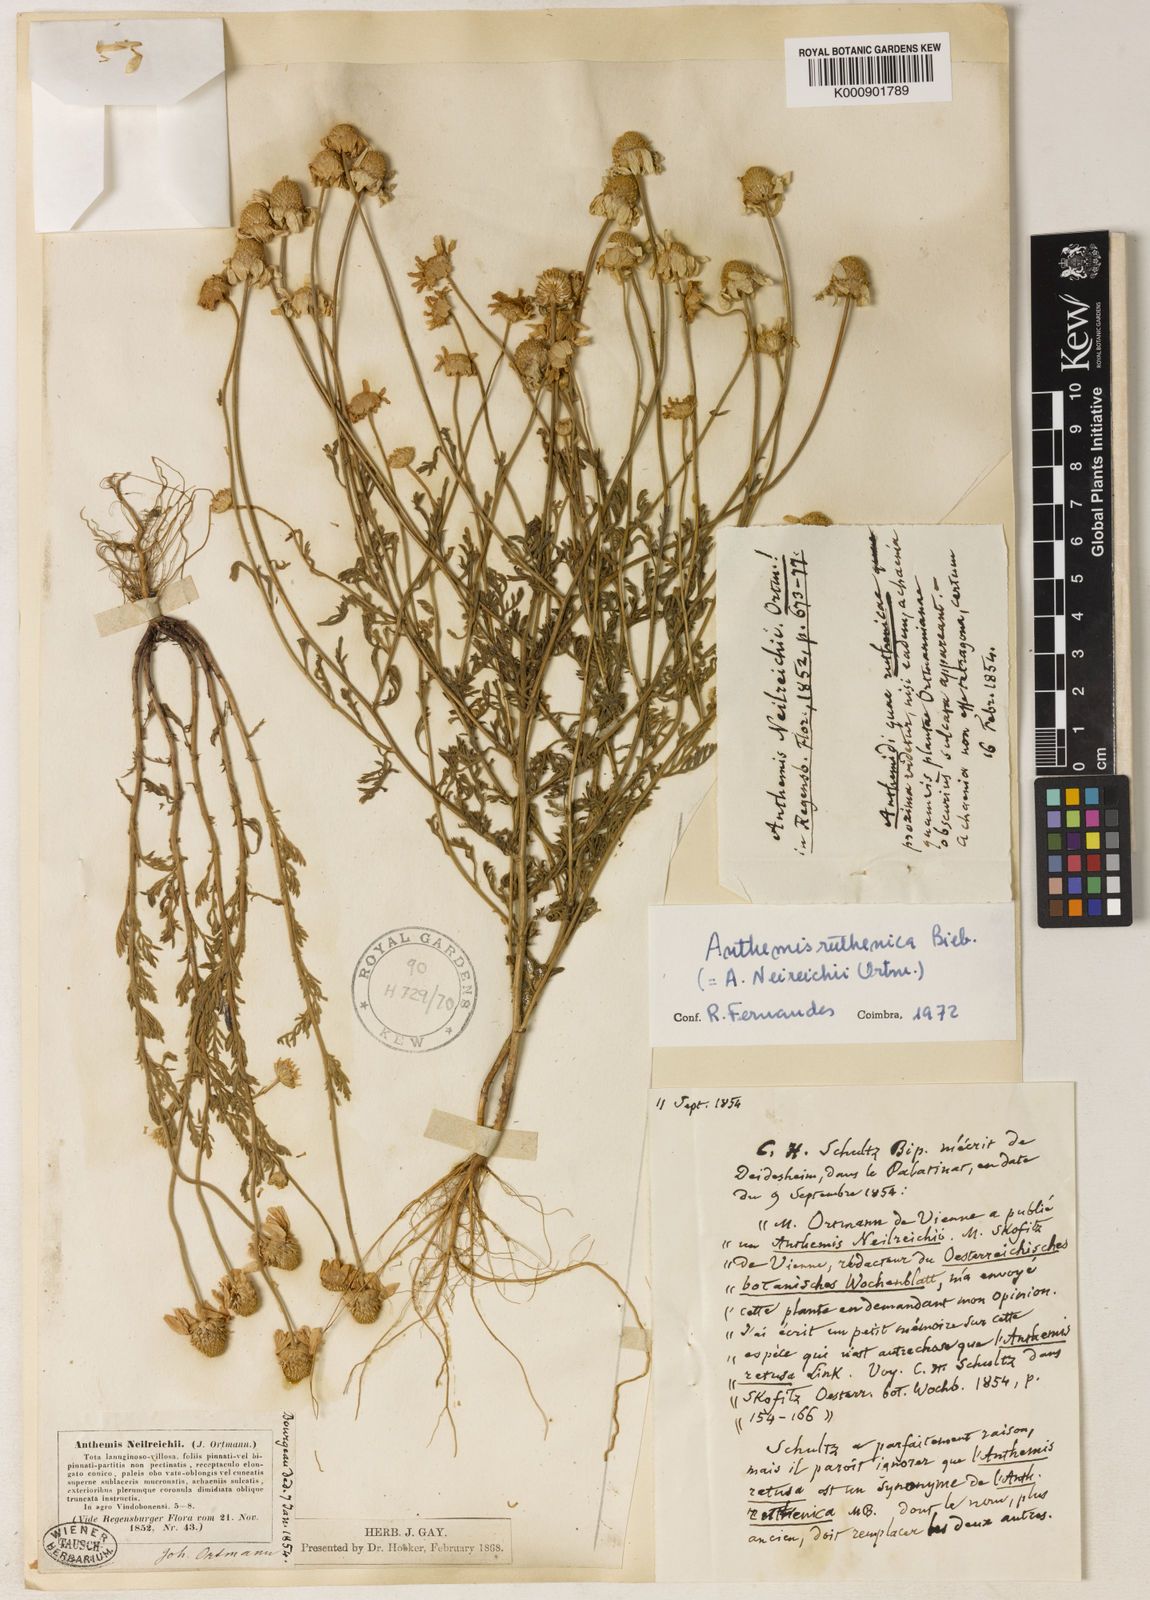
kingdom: Plantae
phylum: Tracheophyta
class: Magnoliopsida
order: Asterales
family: Asteraceae
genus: Anthemis
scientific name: Anthemis ruthenica
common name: Eastern chamomile
